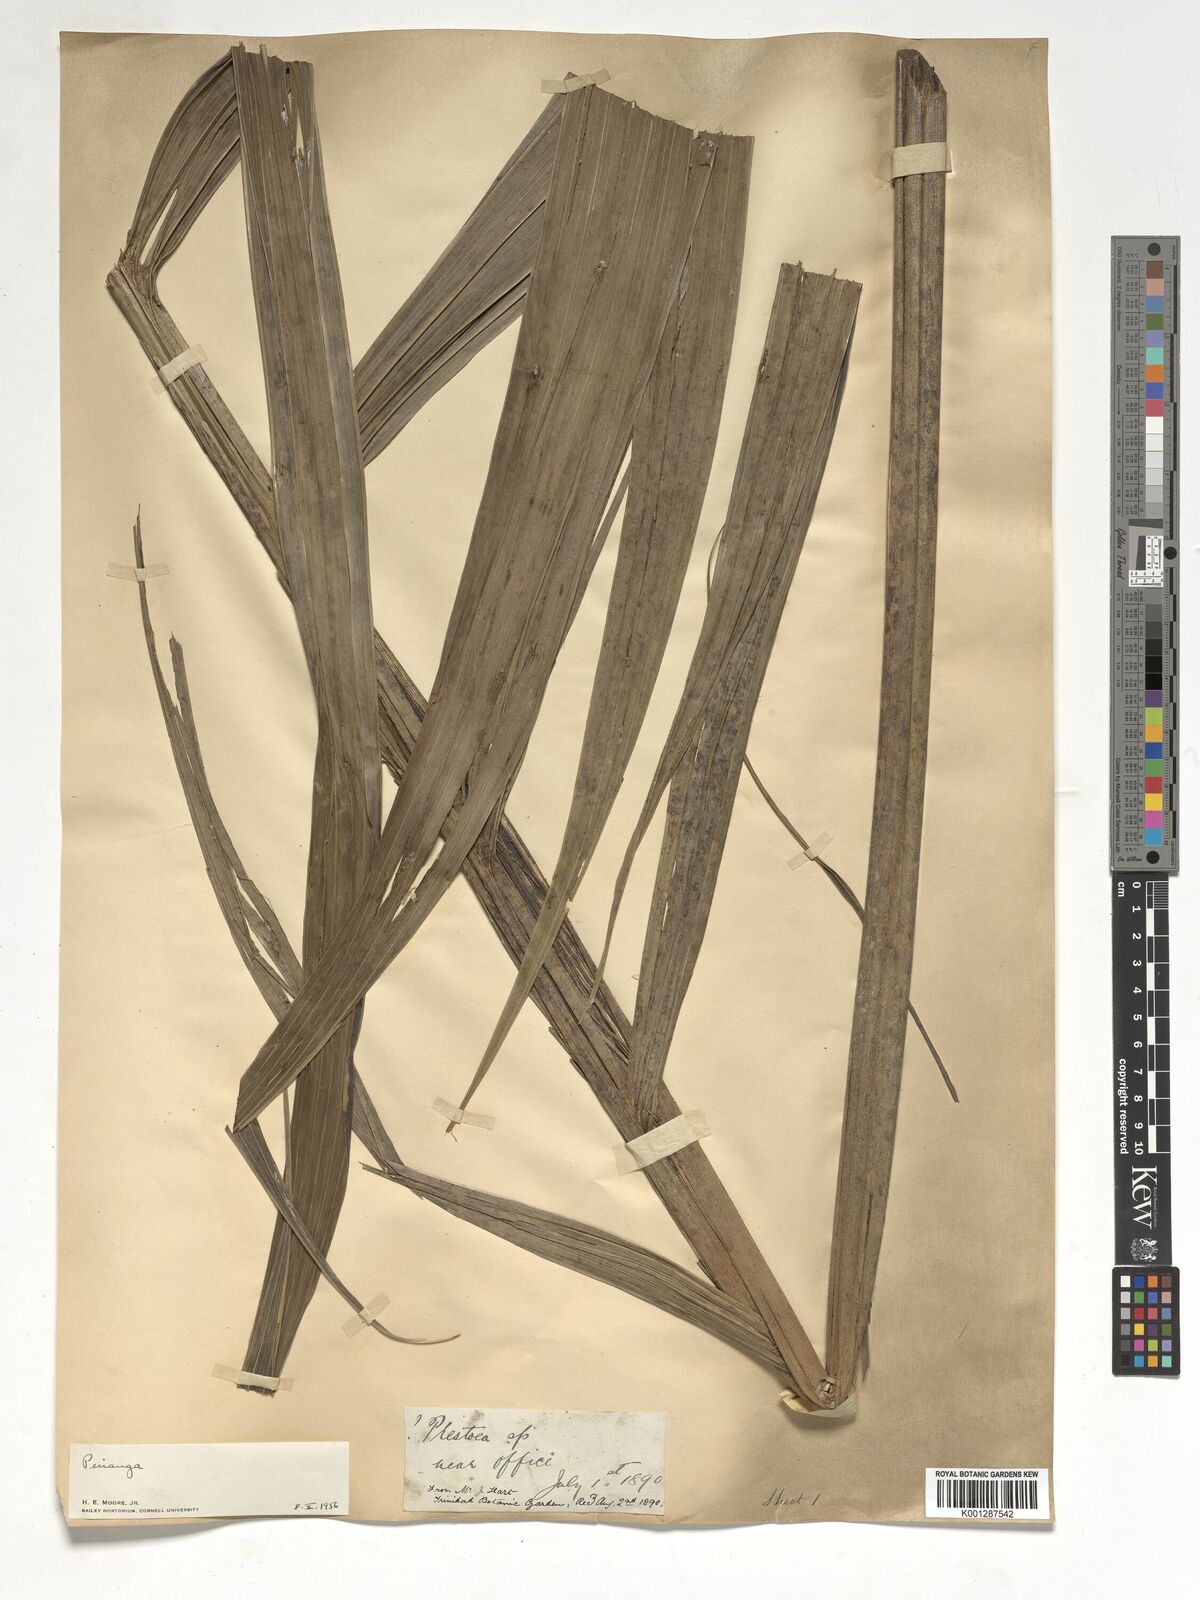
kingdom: Plantae
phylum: Tracheophyta
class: Liliopsida
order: Arecales
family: Arecaceae
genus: Pinanga
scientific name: Pinanga
